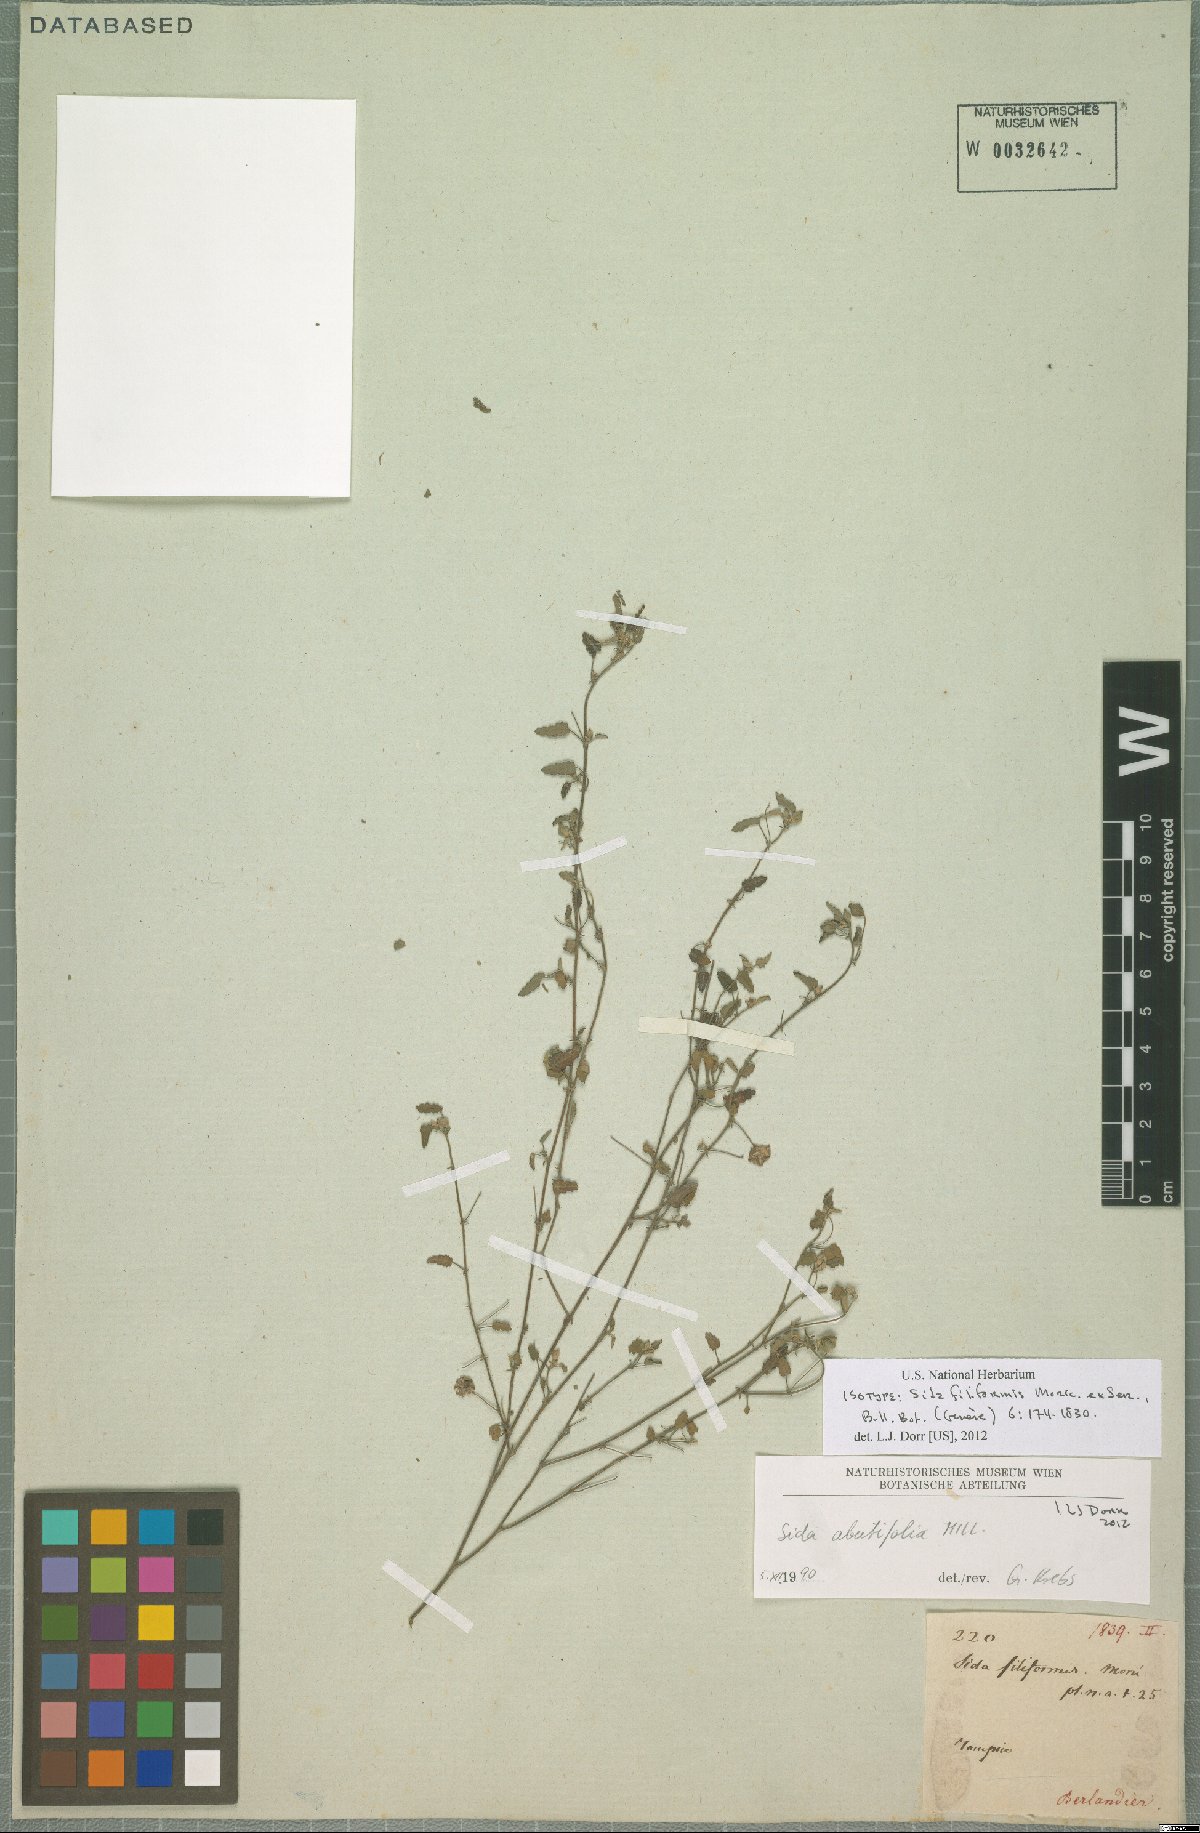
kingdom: Plantae
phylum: Tracheophyta
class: Magnoliopsida
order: Malvales
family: Malvaceae
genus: Sida
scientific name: Sida abutifolia
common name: Spreading fantails
